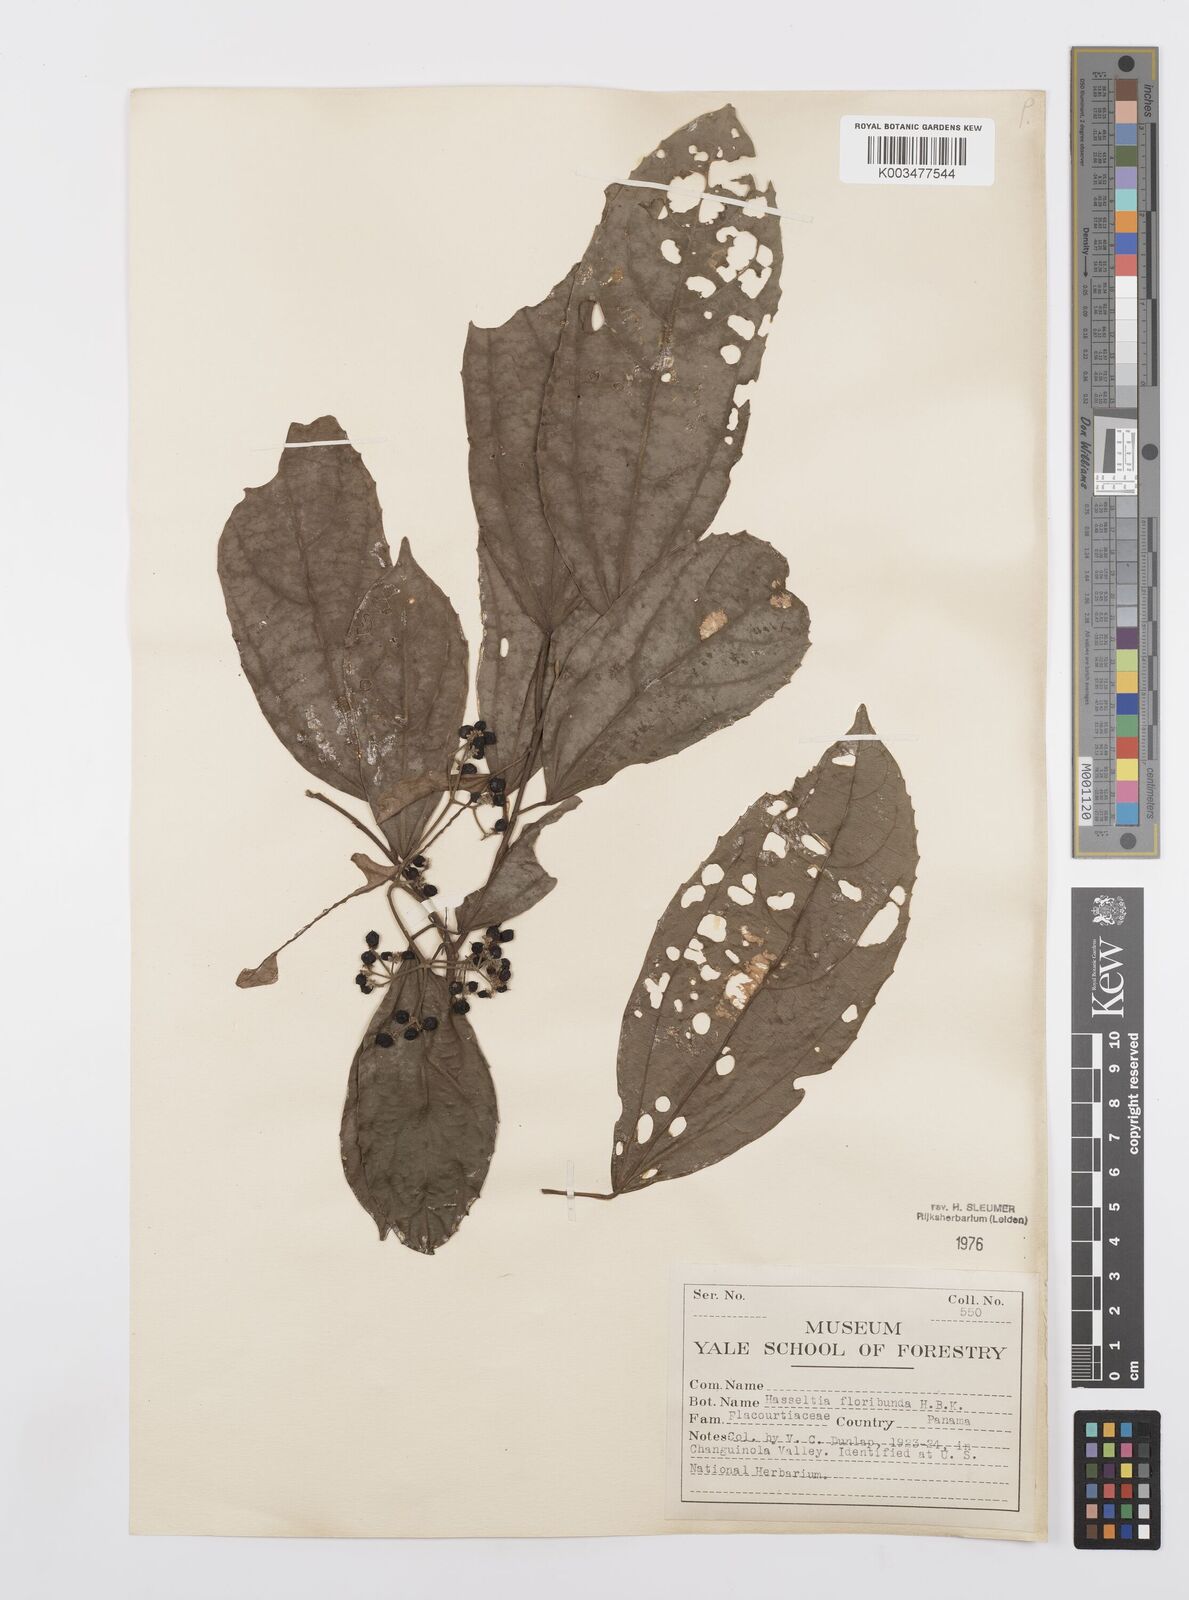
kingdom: Plantae
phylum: Tracheophyta
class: Magnoliopsida
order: Malpighiales
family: Salicaceae
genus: Hasseltia
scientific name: Hasseltia floribunda
